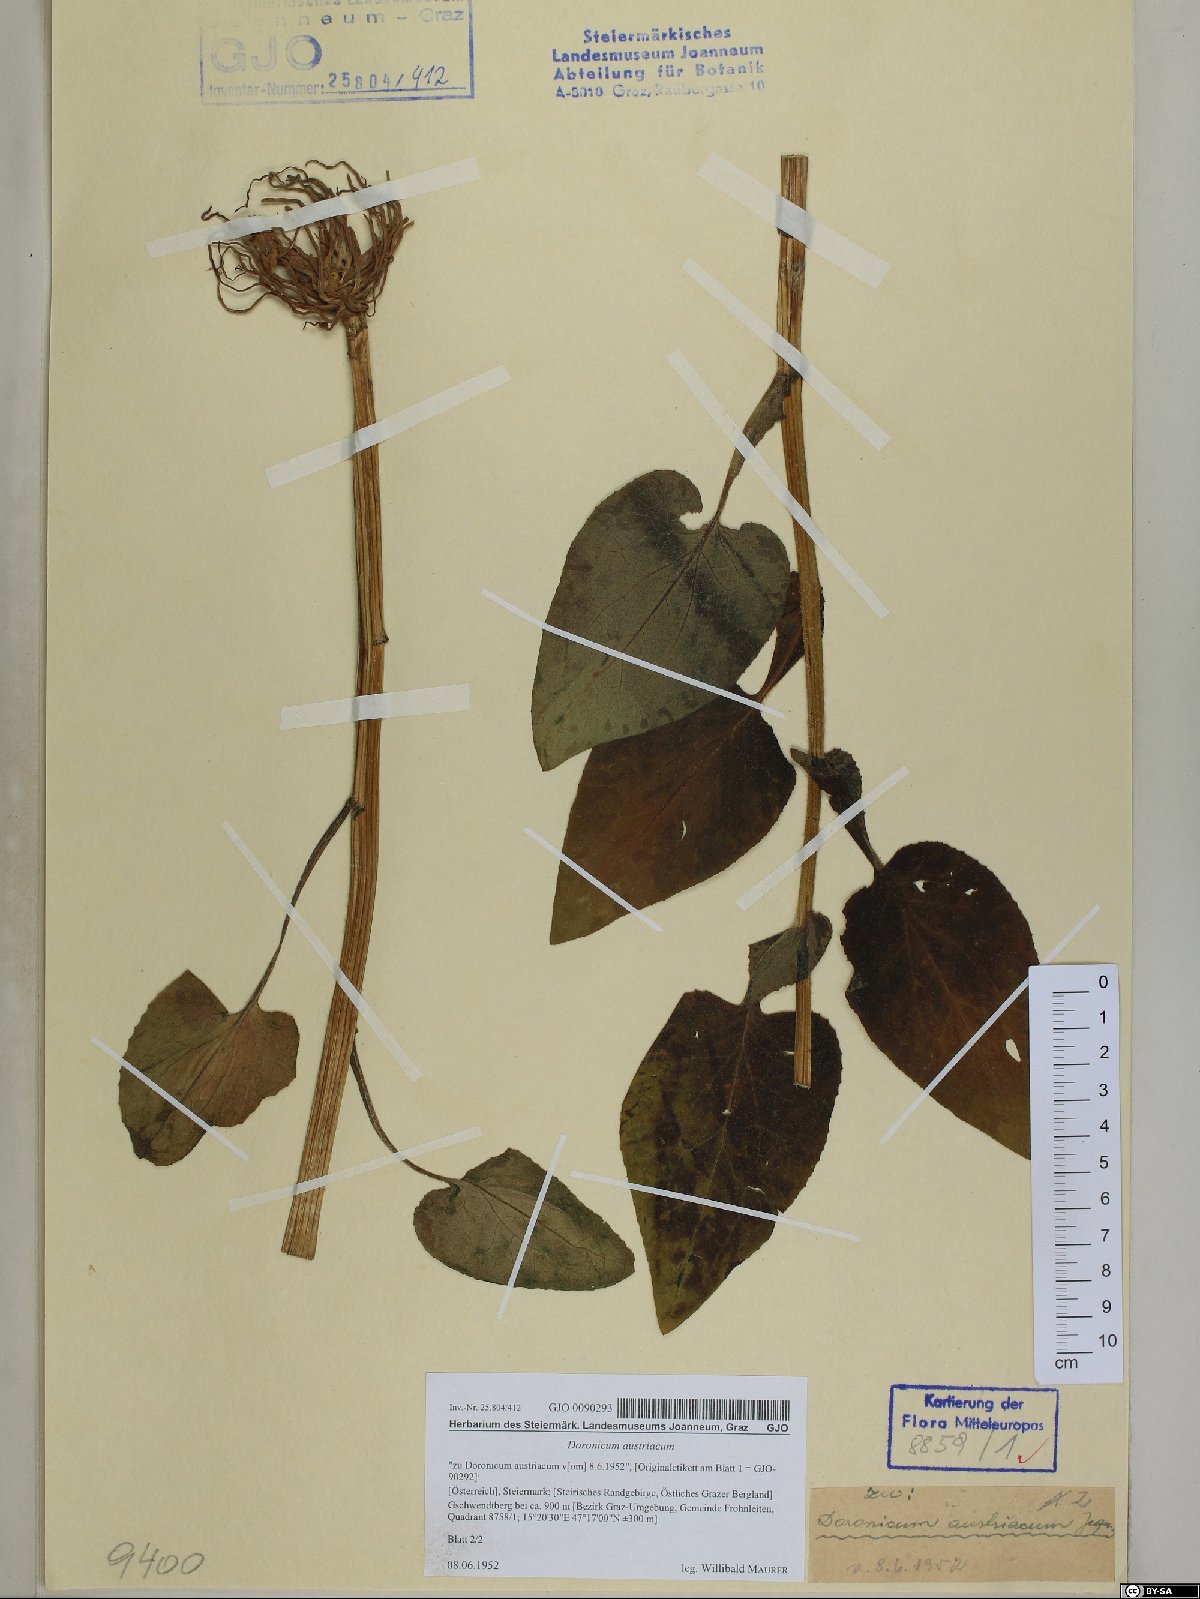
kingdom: Plantae
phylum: Tracheophyta
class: Magnoliopsida
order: Asterales
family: Asteraceae
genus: Doronicum
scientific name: Doronicum austriacum
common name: Austrian leopard's-bane
